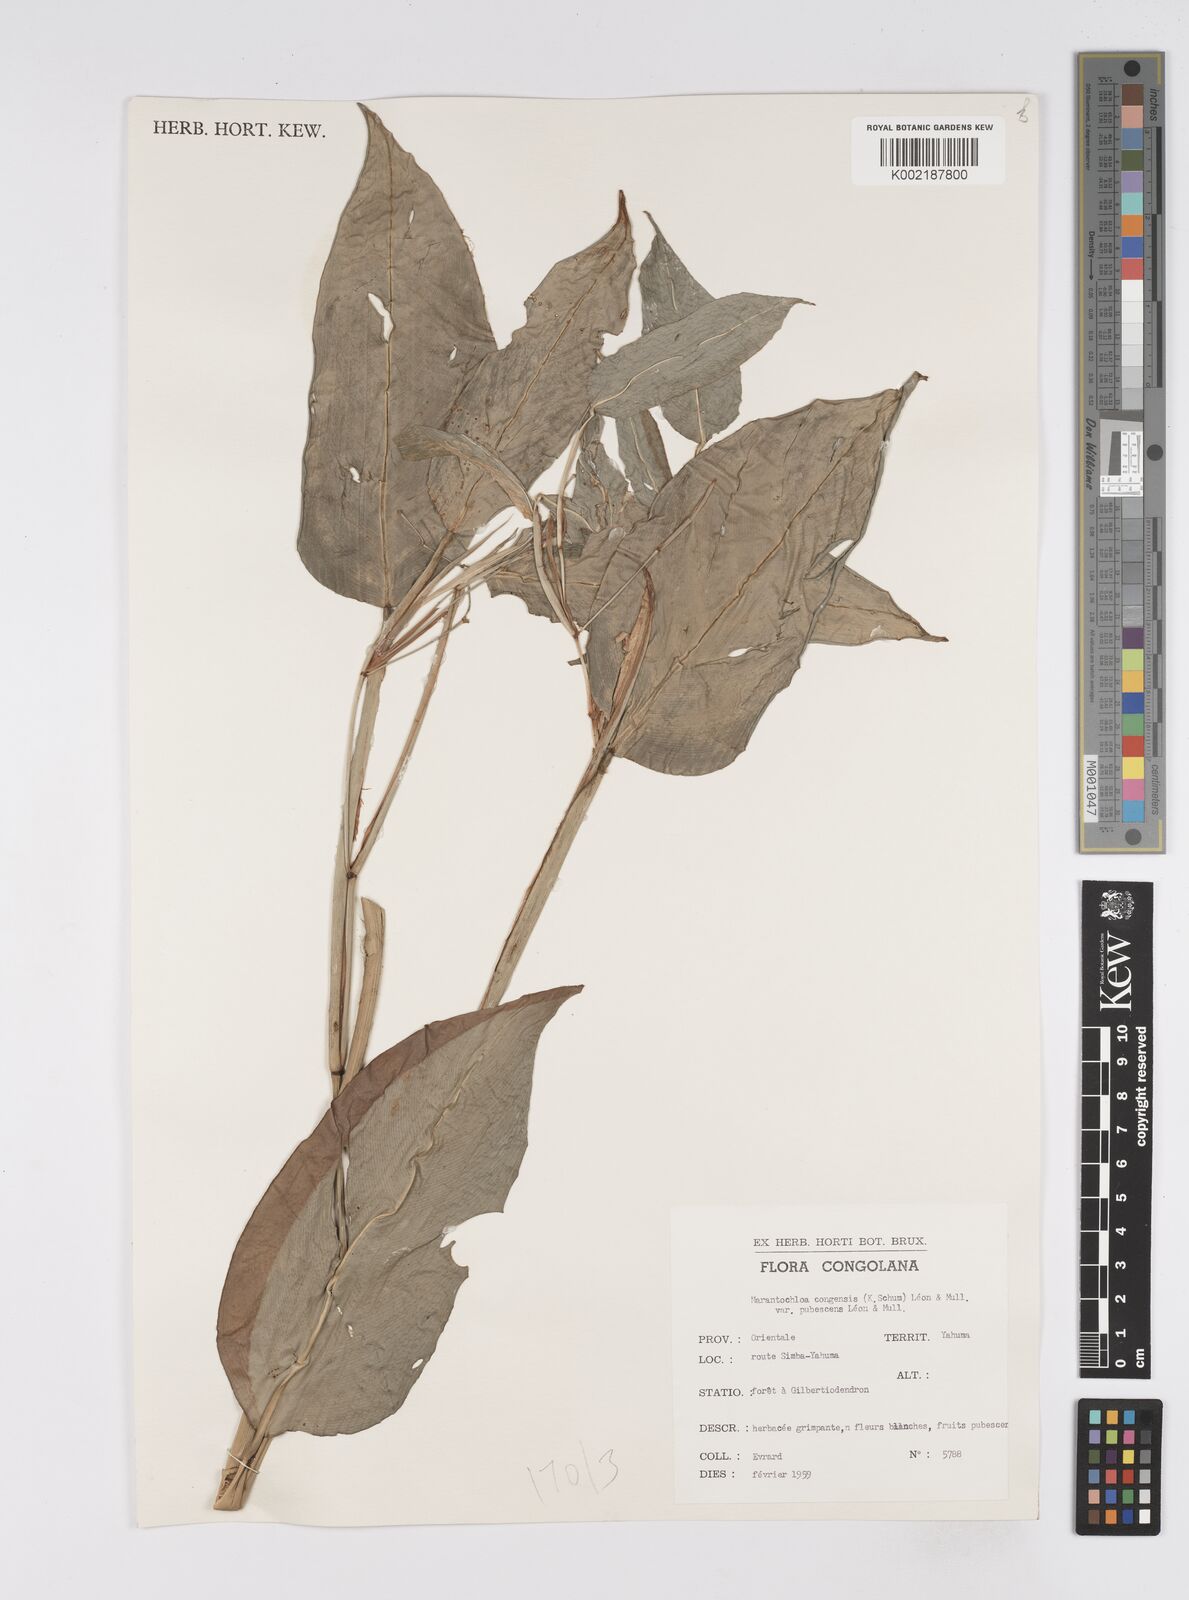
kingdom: Plantae
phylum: Tracheophyta
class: Liliopsida
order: Zingiberales
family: Marantaceae
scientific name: Marantaceae
